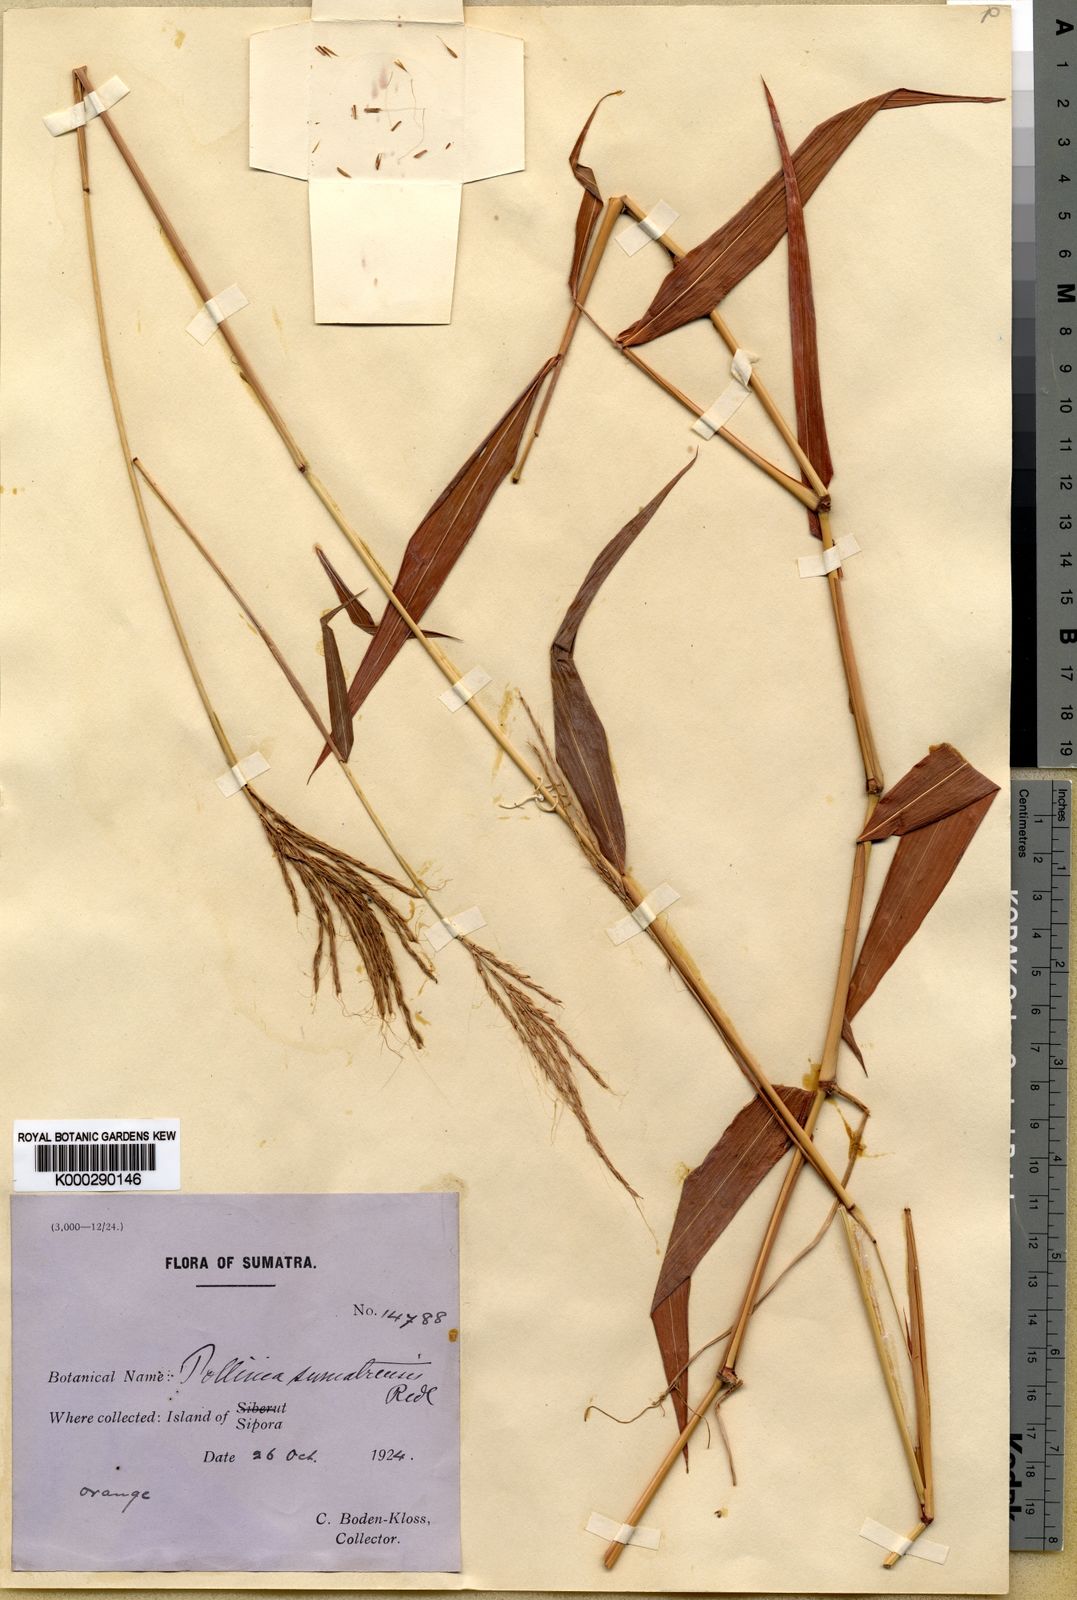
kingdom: Plantae
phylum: Tracheophyta
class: Liliopsida
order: Poales
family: Poaceae
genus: Microstegium
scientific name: Microstegium
